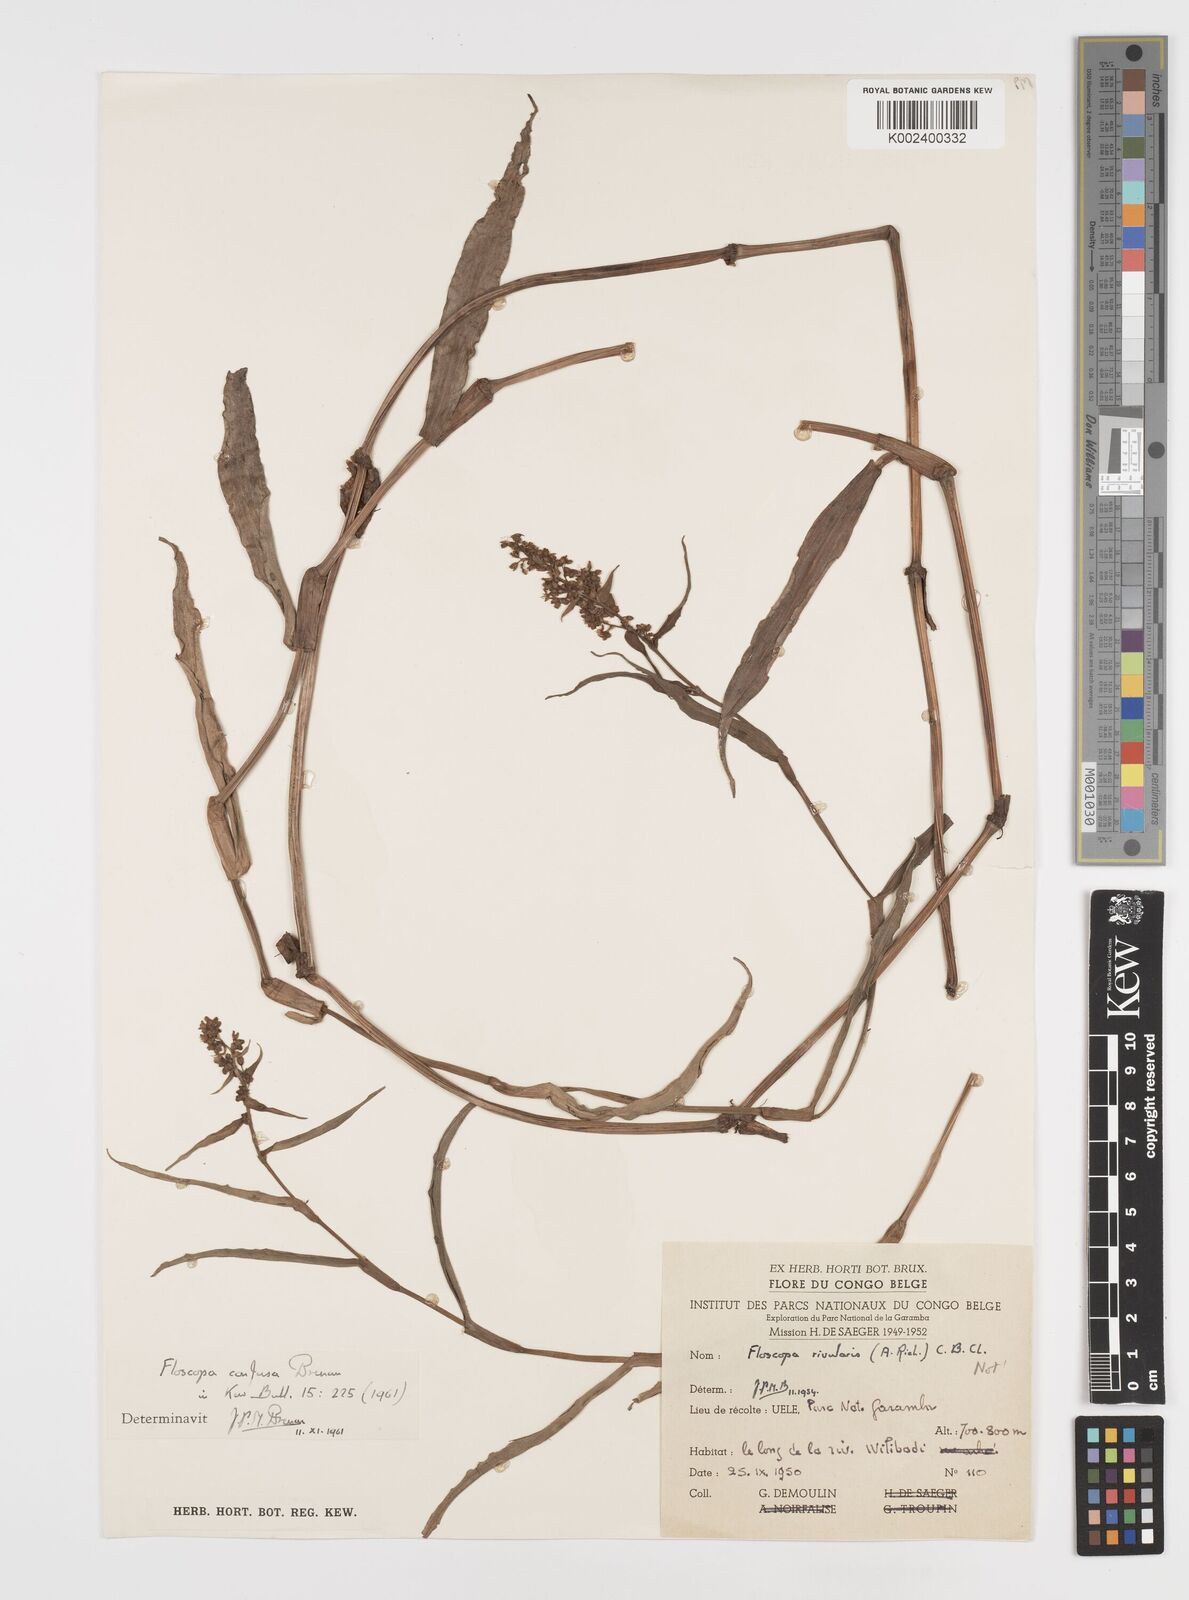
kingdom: Plantae
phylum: Tracheophyta
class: Liliopsida
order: Commelinales
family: Commelinaceae
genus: Floscopa
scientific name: Floscopa confusa
